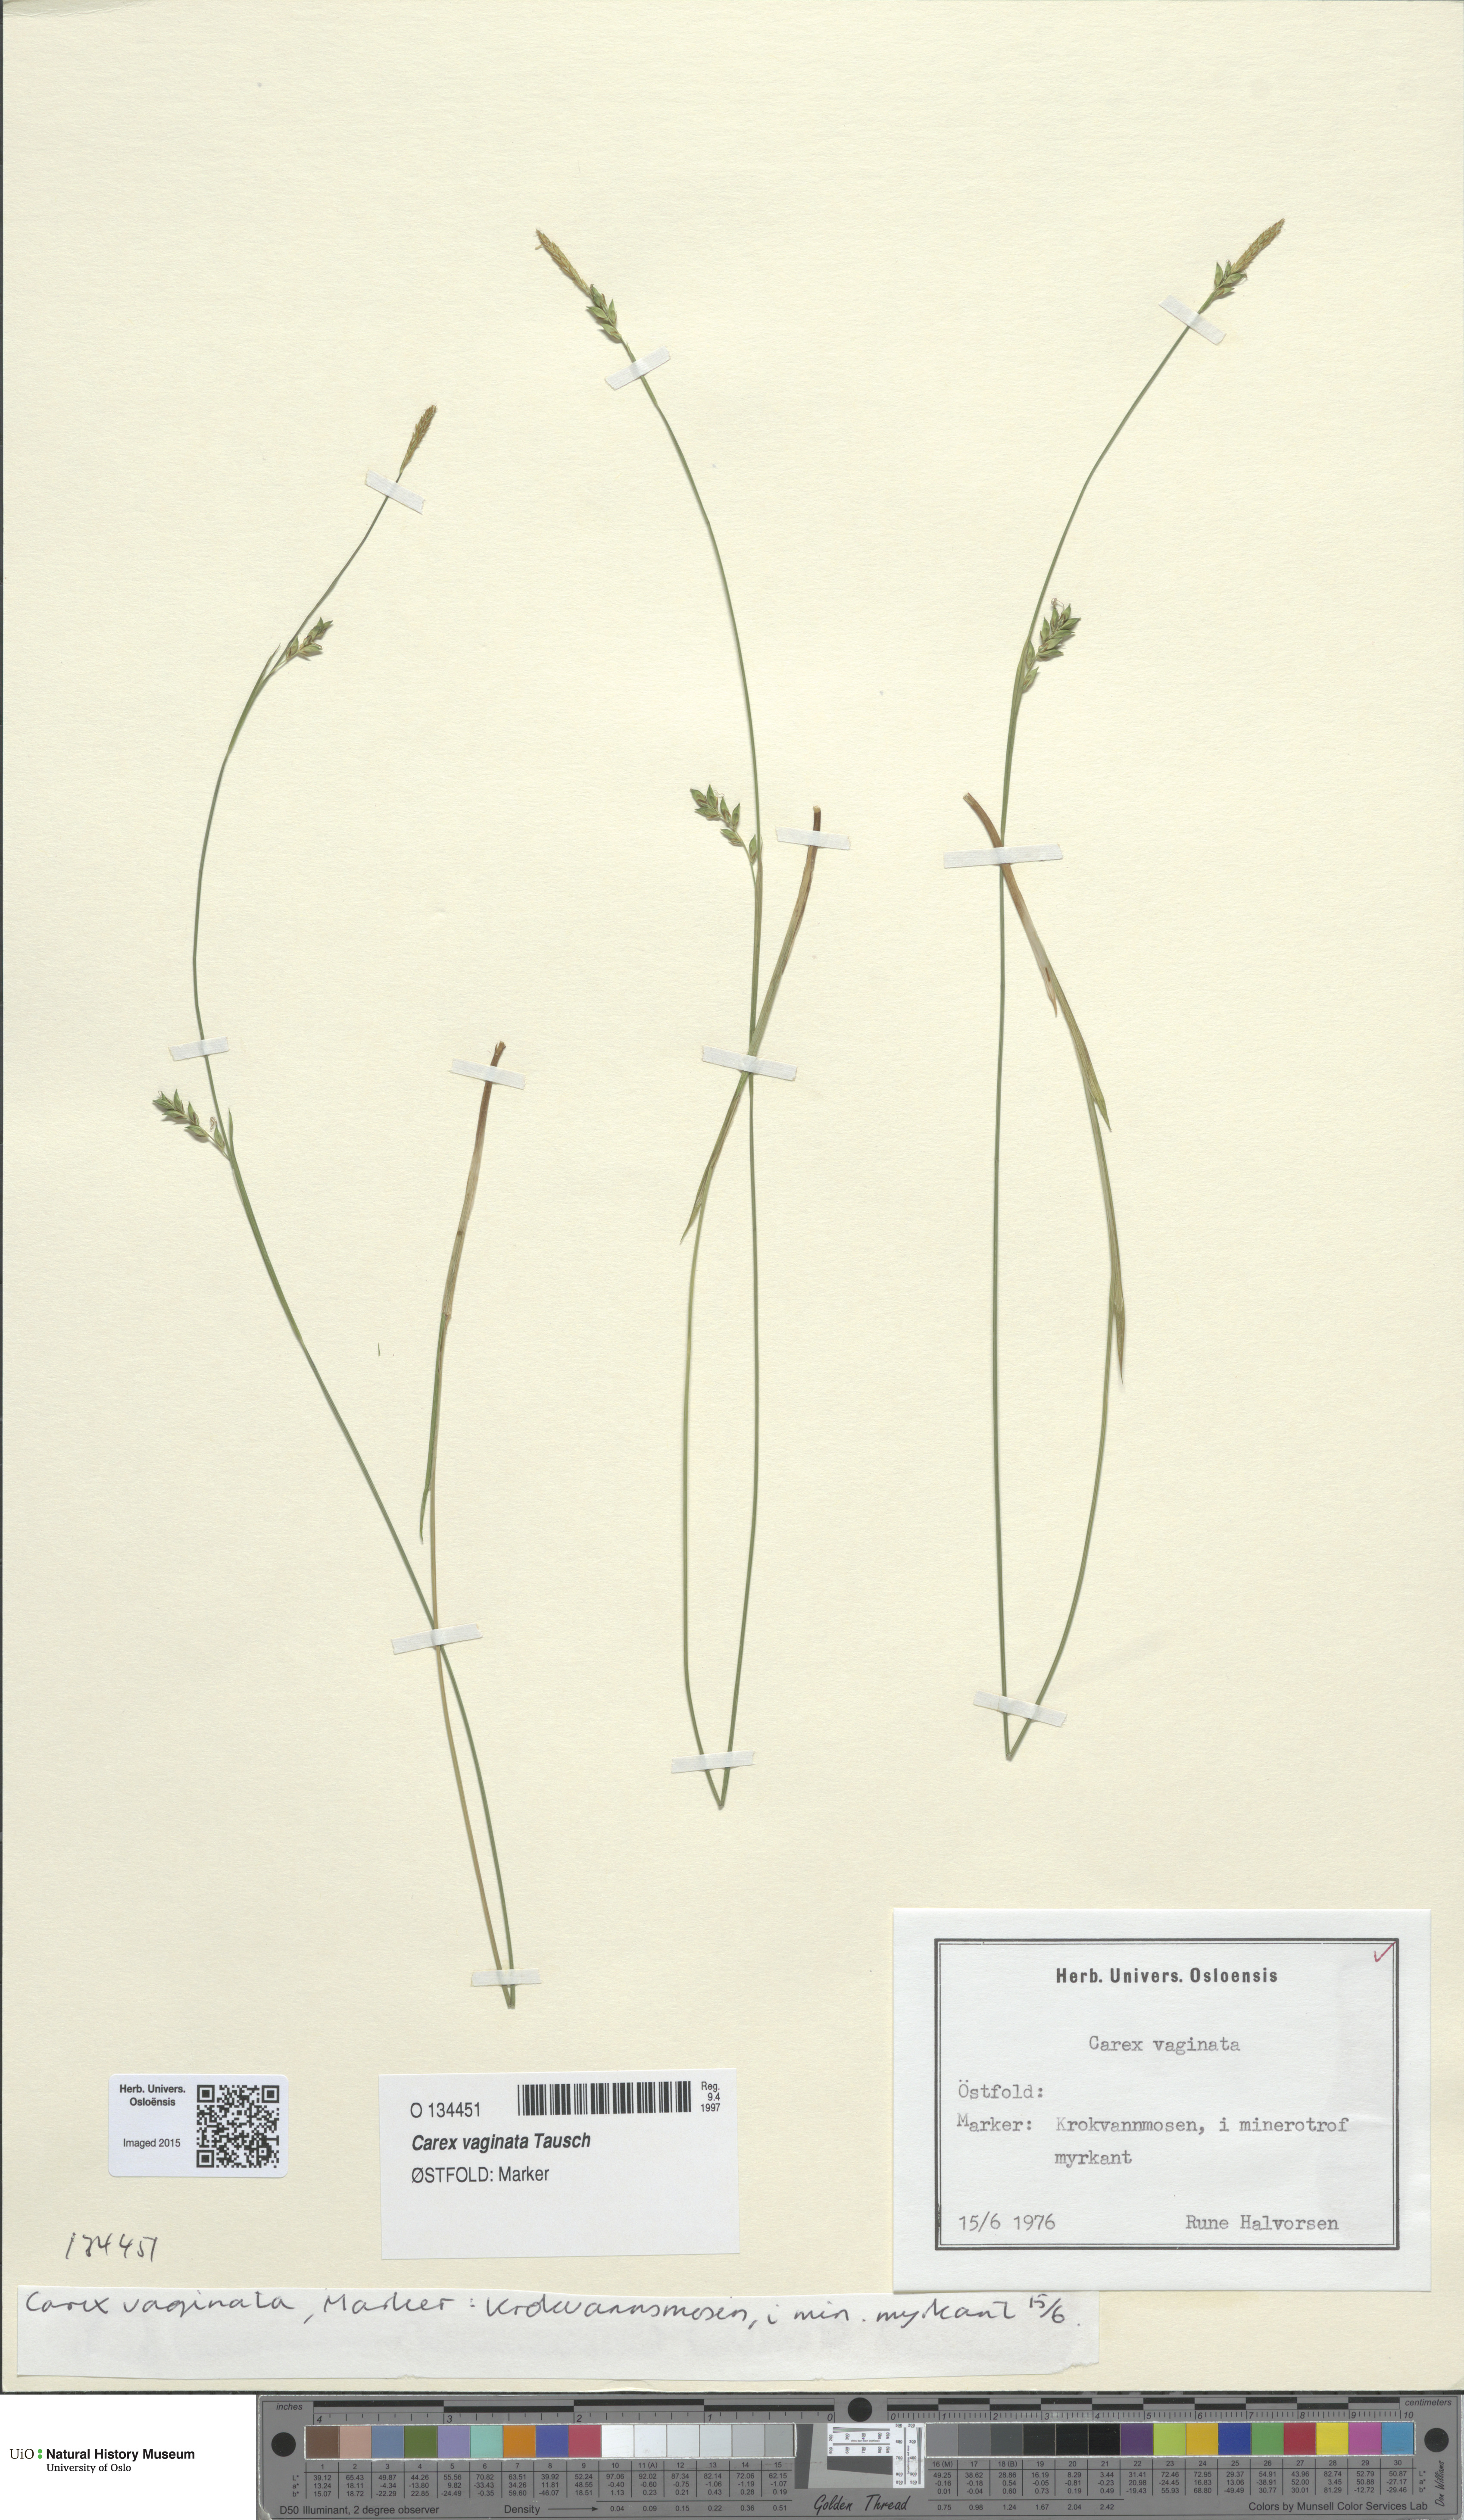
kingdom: Plantae
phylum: Tracheophyta
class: Liliopsida
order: Poales
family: Cyperaceae
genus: Carex
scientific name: Carex vaginata
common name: Sheathed sedge
